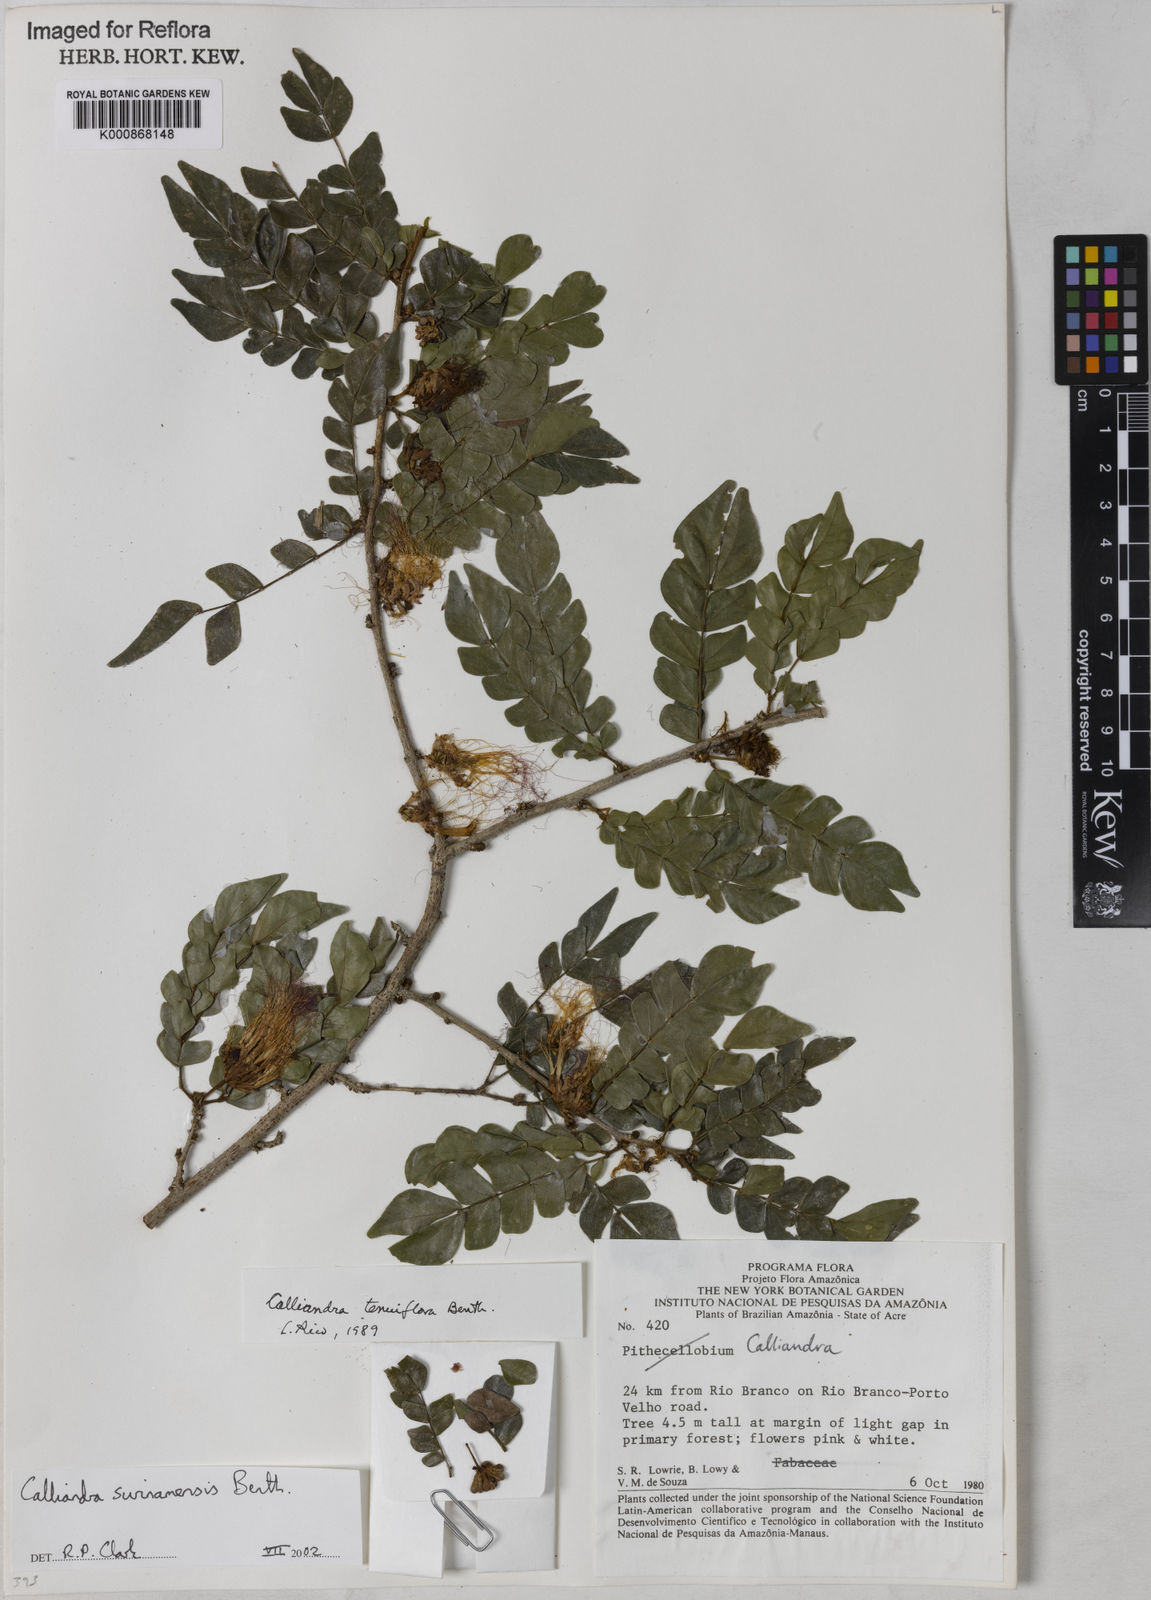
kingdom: Plantae
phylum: Tracheophyta
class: Magnoliopsida
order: Fabales
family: Fabaceae
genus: Calliandra
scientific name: Calliandra surinamensis
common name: Pink powder puff
